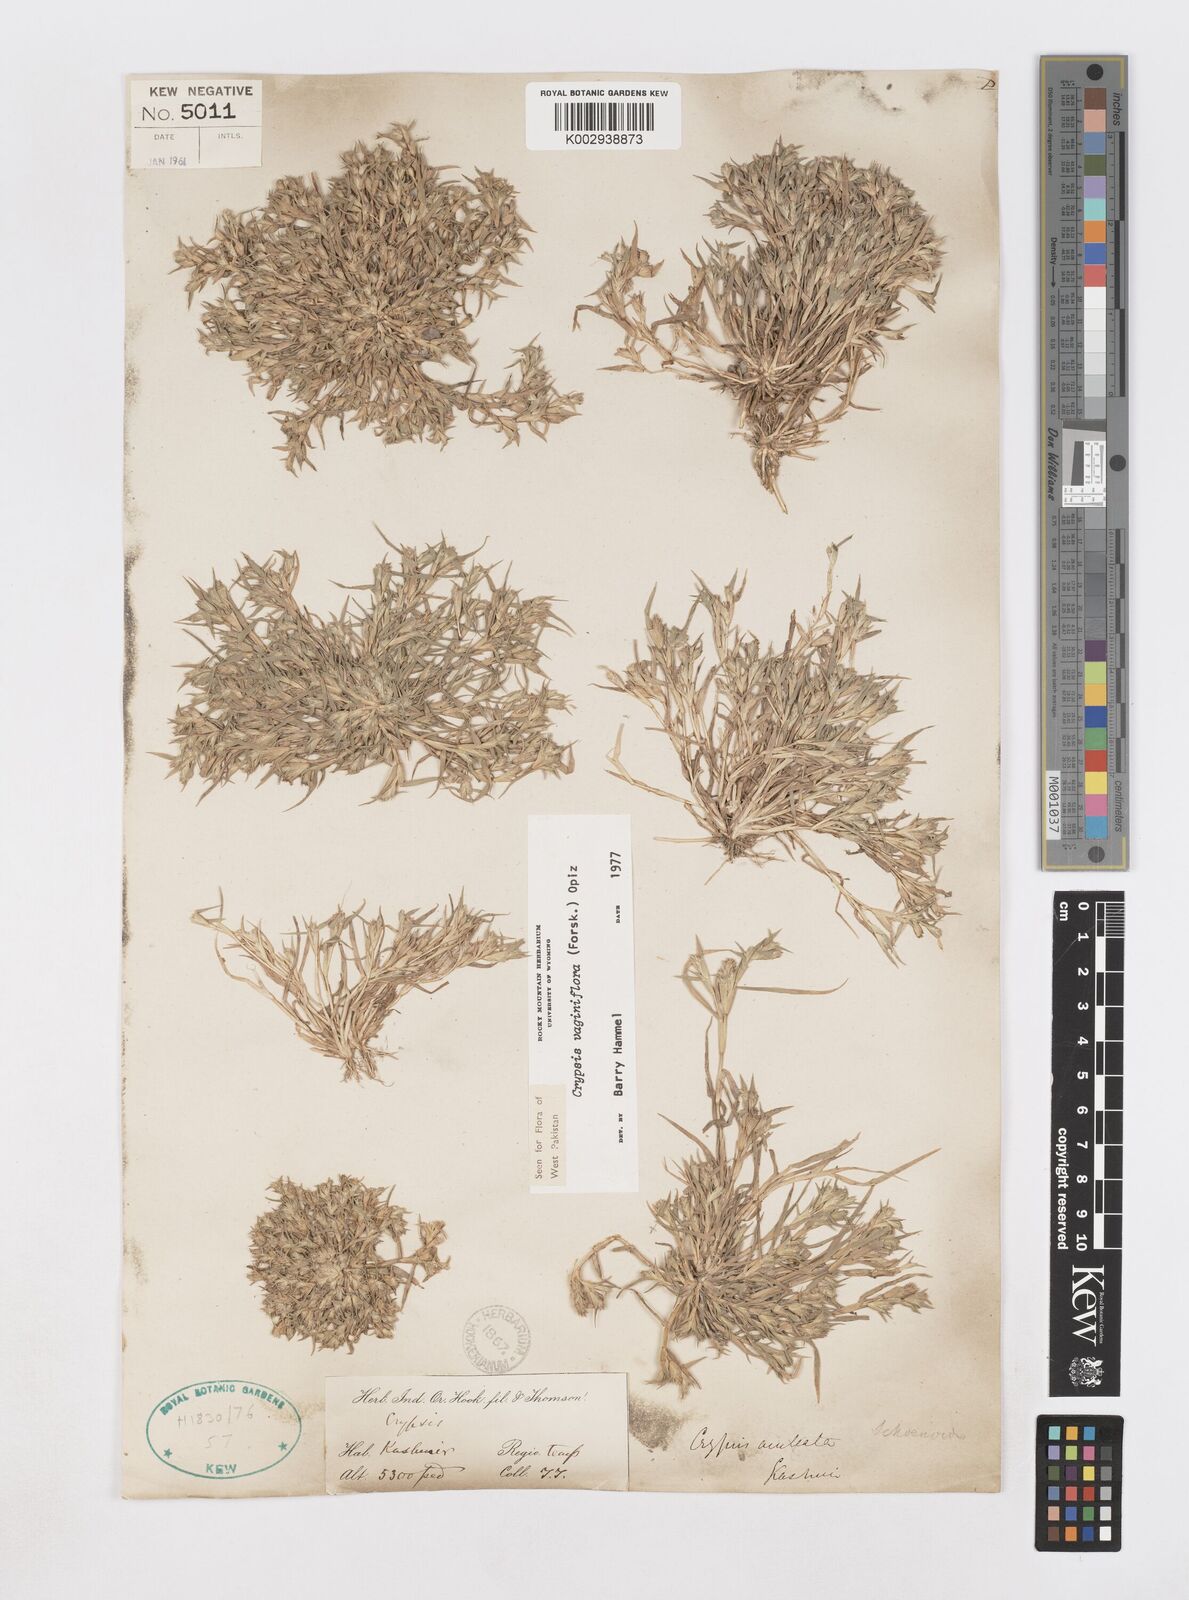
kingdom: Plantae
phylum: Tracheophyta
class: Liliopsida
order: Poales
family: Poaceae
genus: Sporobolus
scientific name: Sporobolus niliacus
